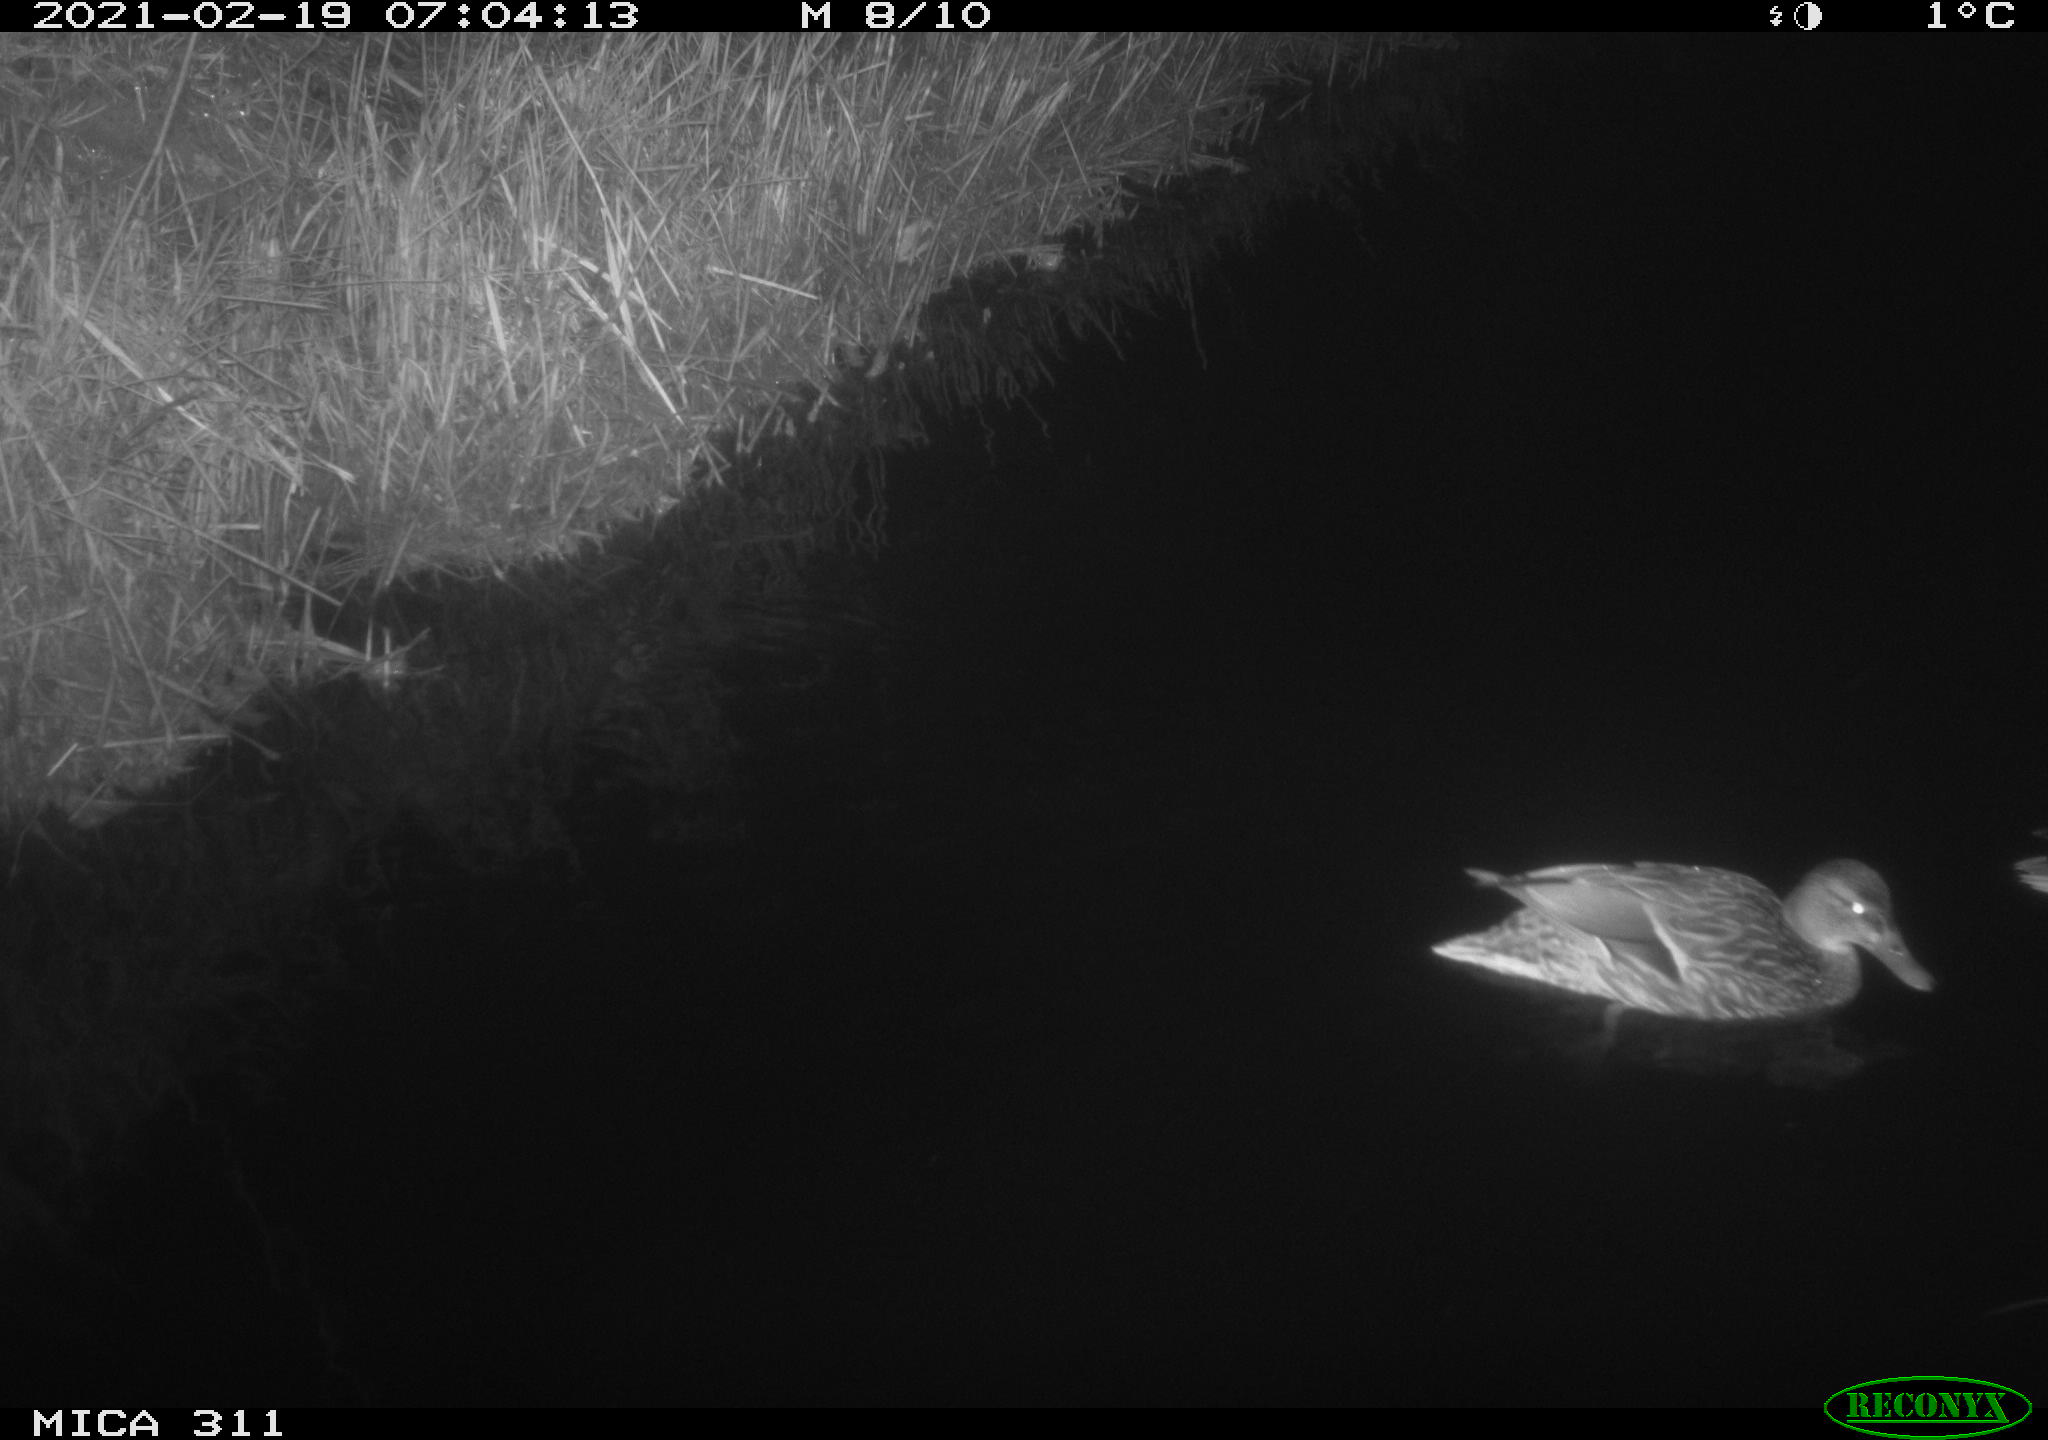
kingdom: Animalia
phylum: Chordata
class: Aves
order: Anseriformes
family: Anatidae
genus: Anas
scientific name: Anas platyrhynchos
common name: Mallard
